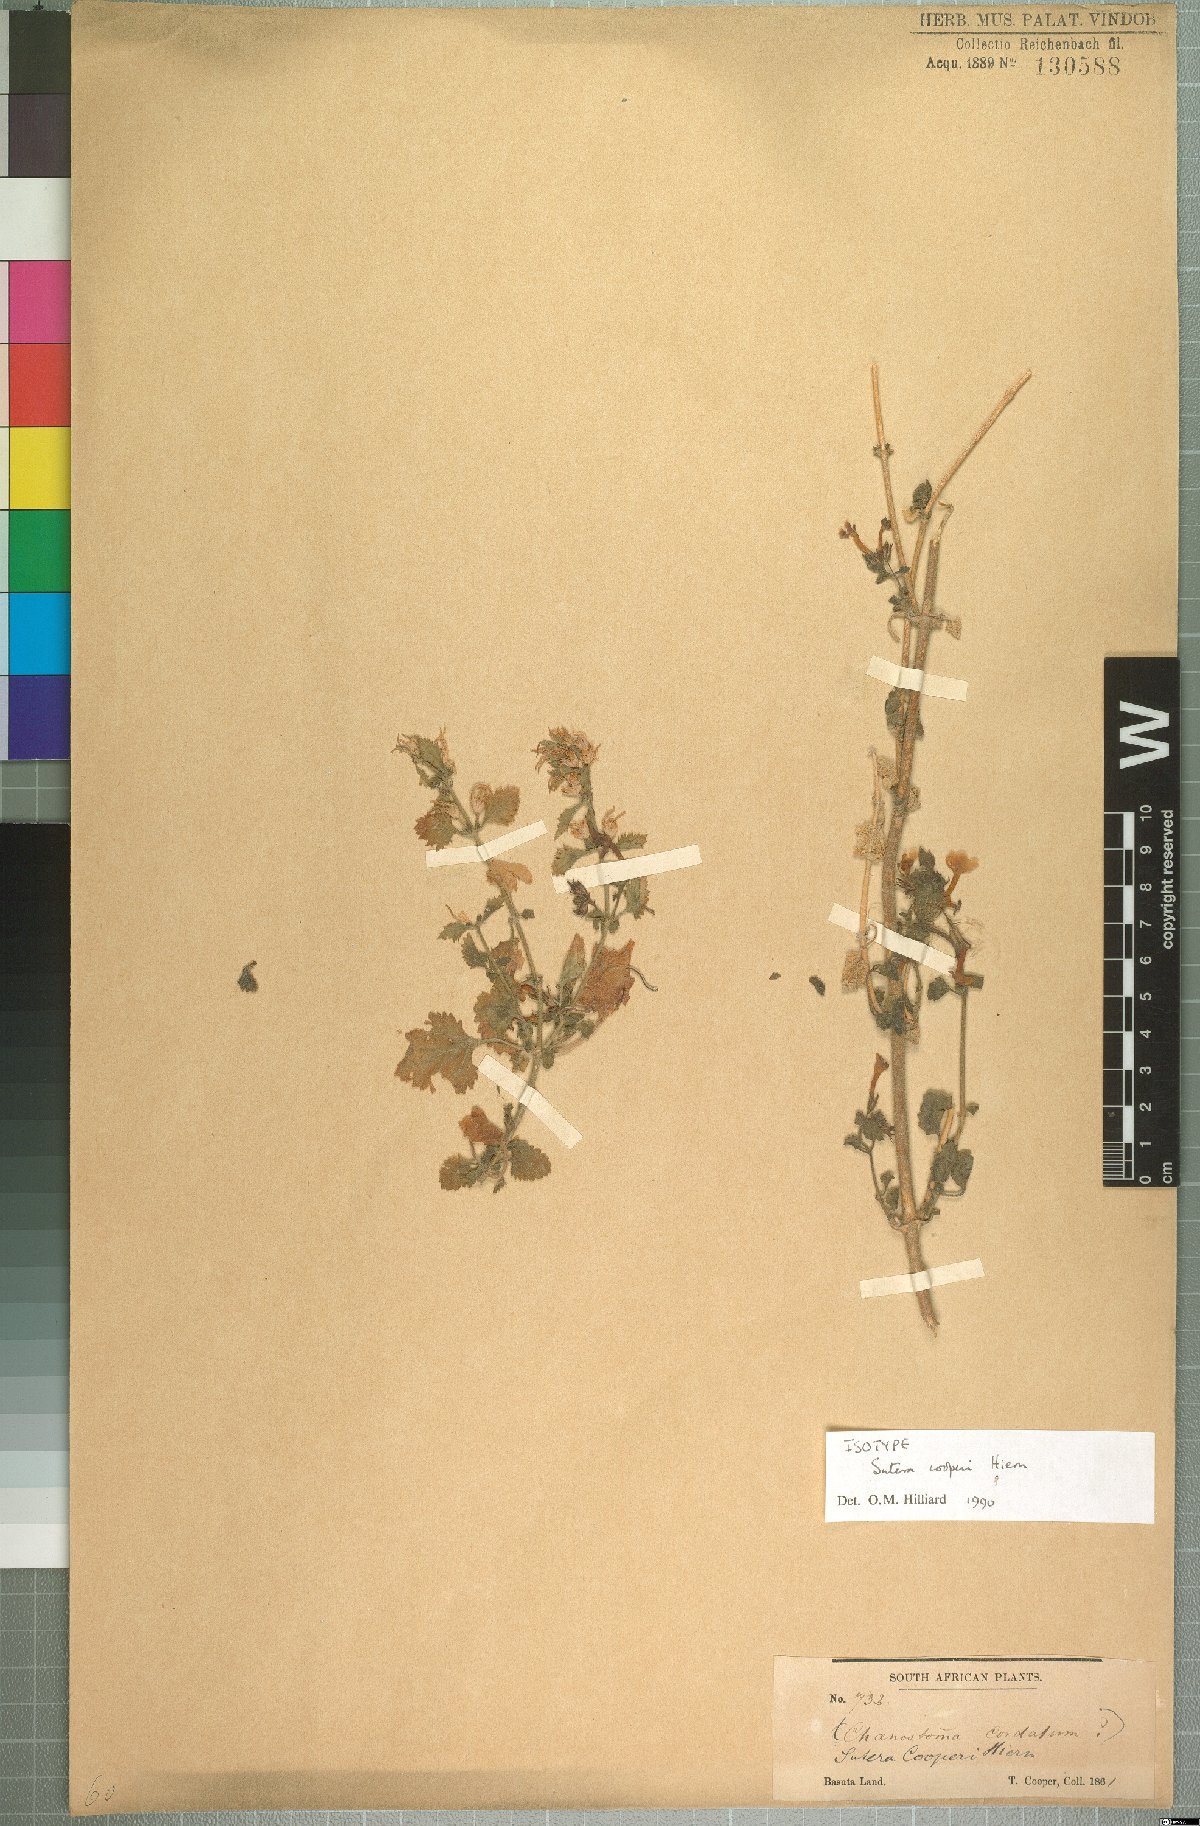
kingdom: Plantae
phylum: Tracheophyta
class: Magnoliopsida
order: Lamiales
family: Scrophulariaceae
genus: Sutera
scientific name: Sutera cooperi
